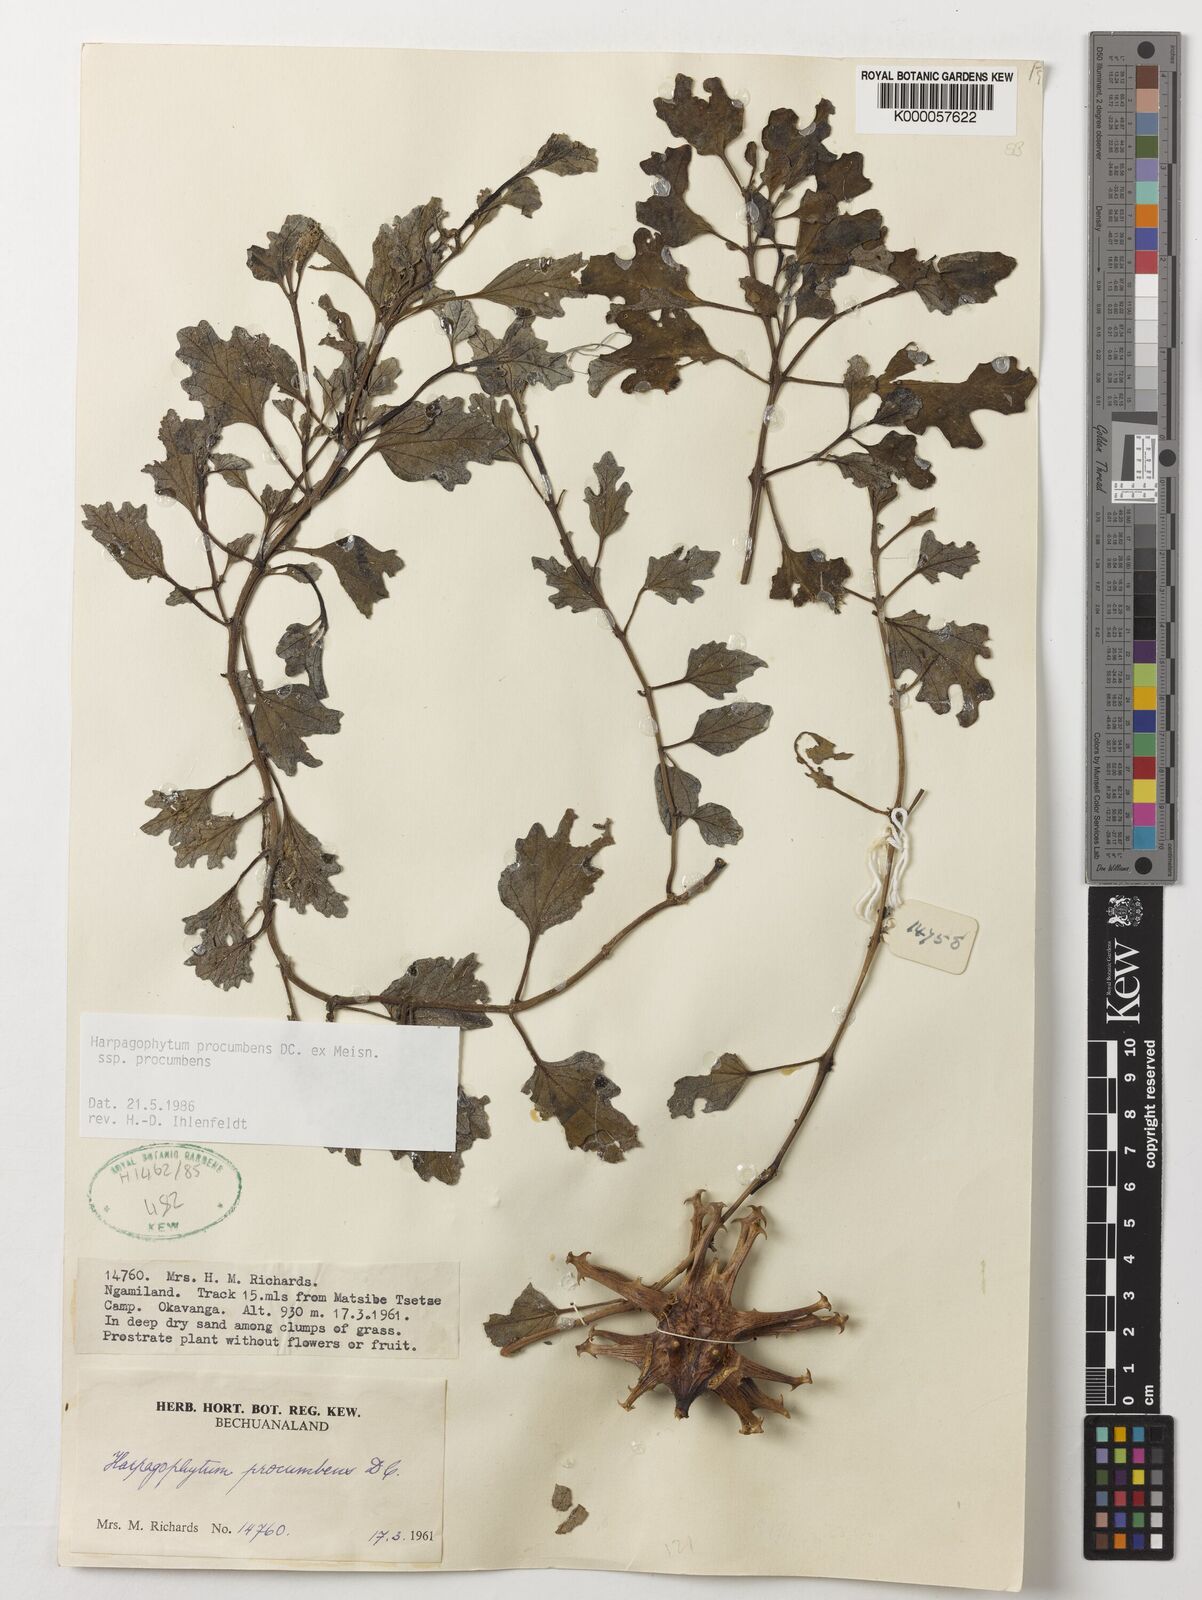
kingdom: Plantae
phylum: Tracheophyta
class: Magnoliopsida
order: Lamiales
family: Pedaliaceae
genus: Harpagophytum
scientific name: Harpagophytum procumbens
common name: Grappleplant
